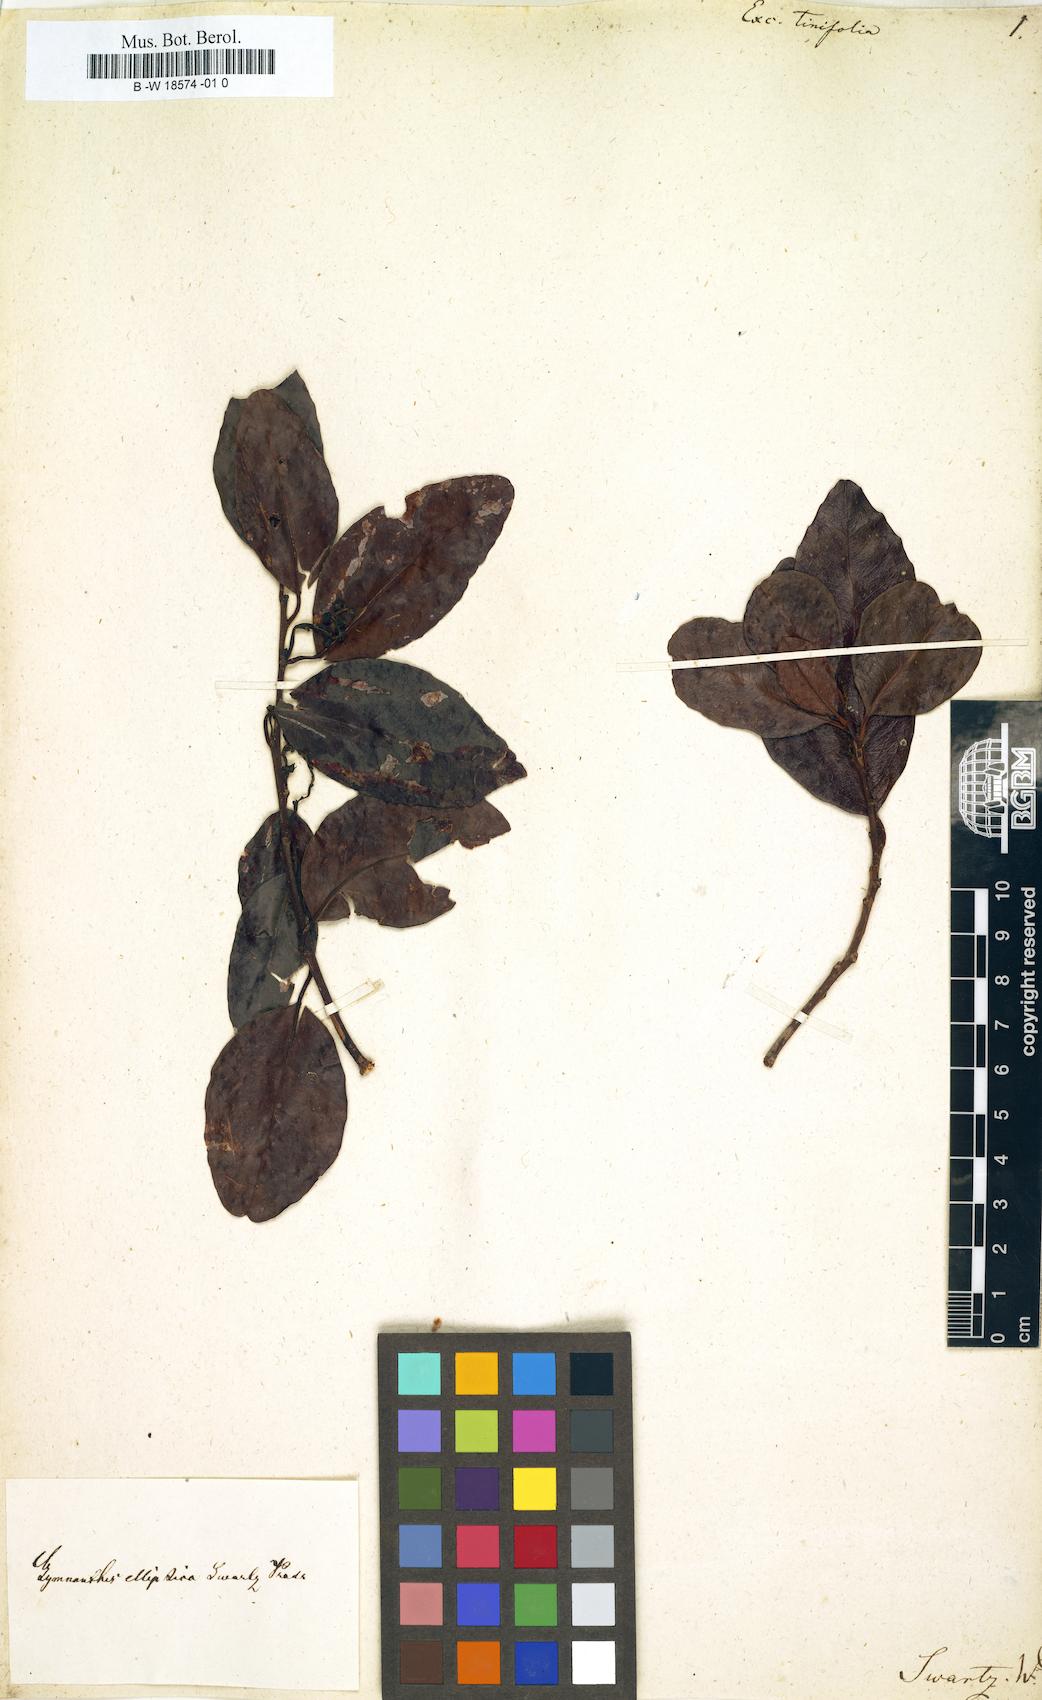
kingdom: Plantae
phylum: Tracheophyta
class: Magnoliopsida
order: Malpighiales
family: Euphorbiaceae
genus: Dendrocousinsia
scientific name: Dendrocousinsia elliptica
